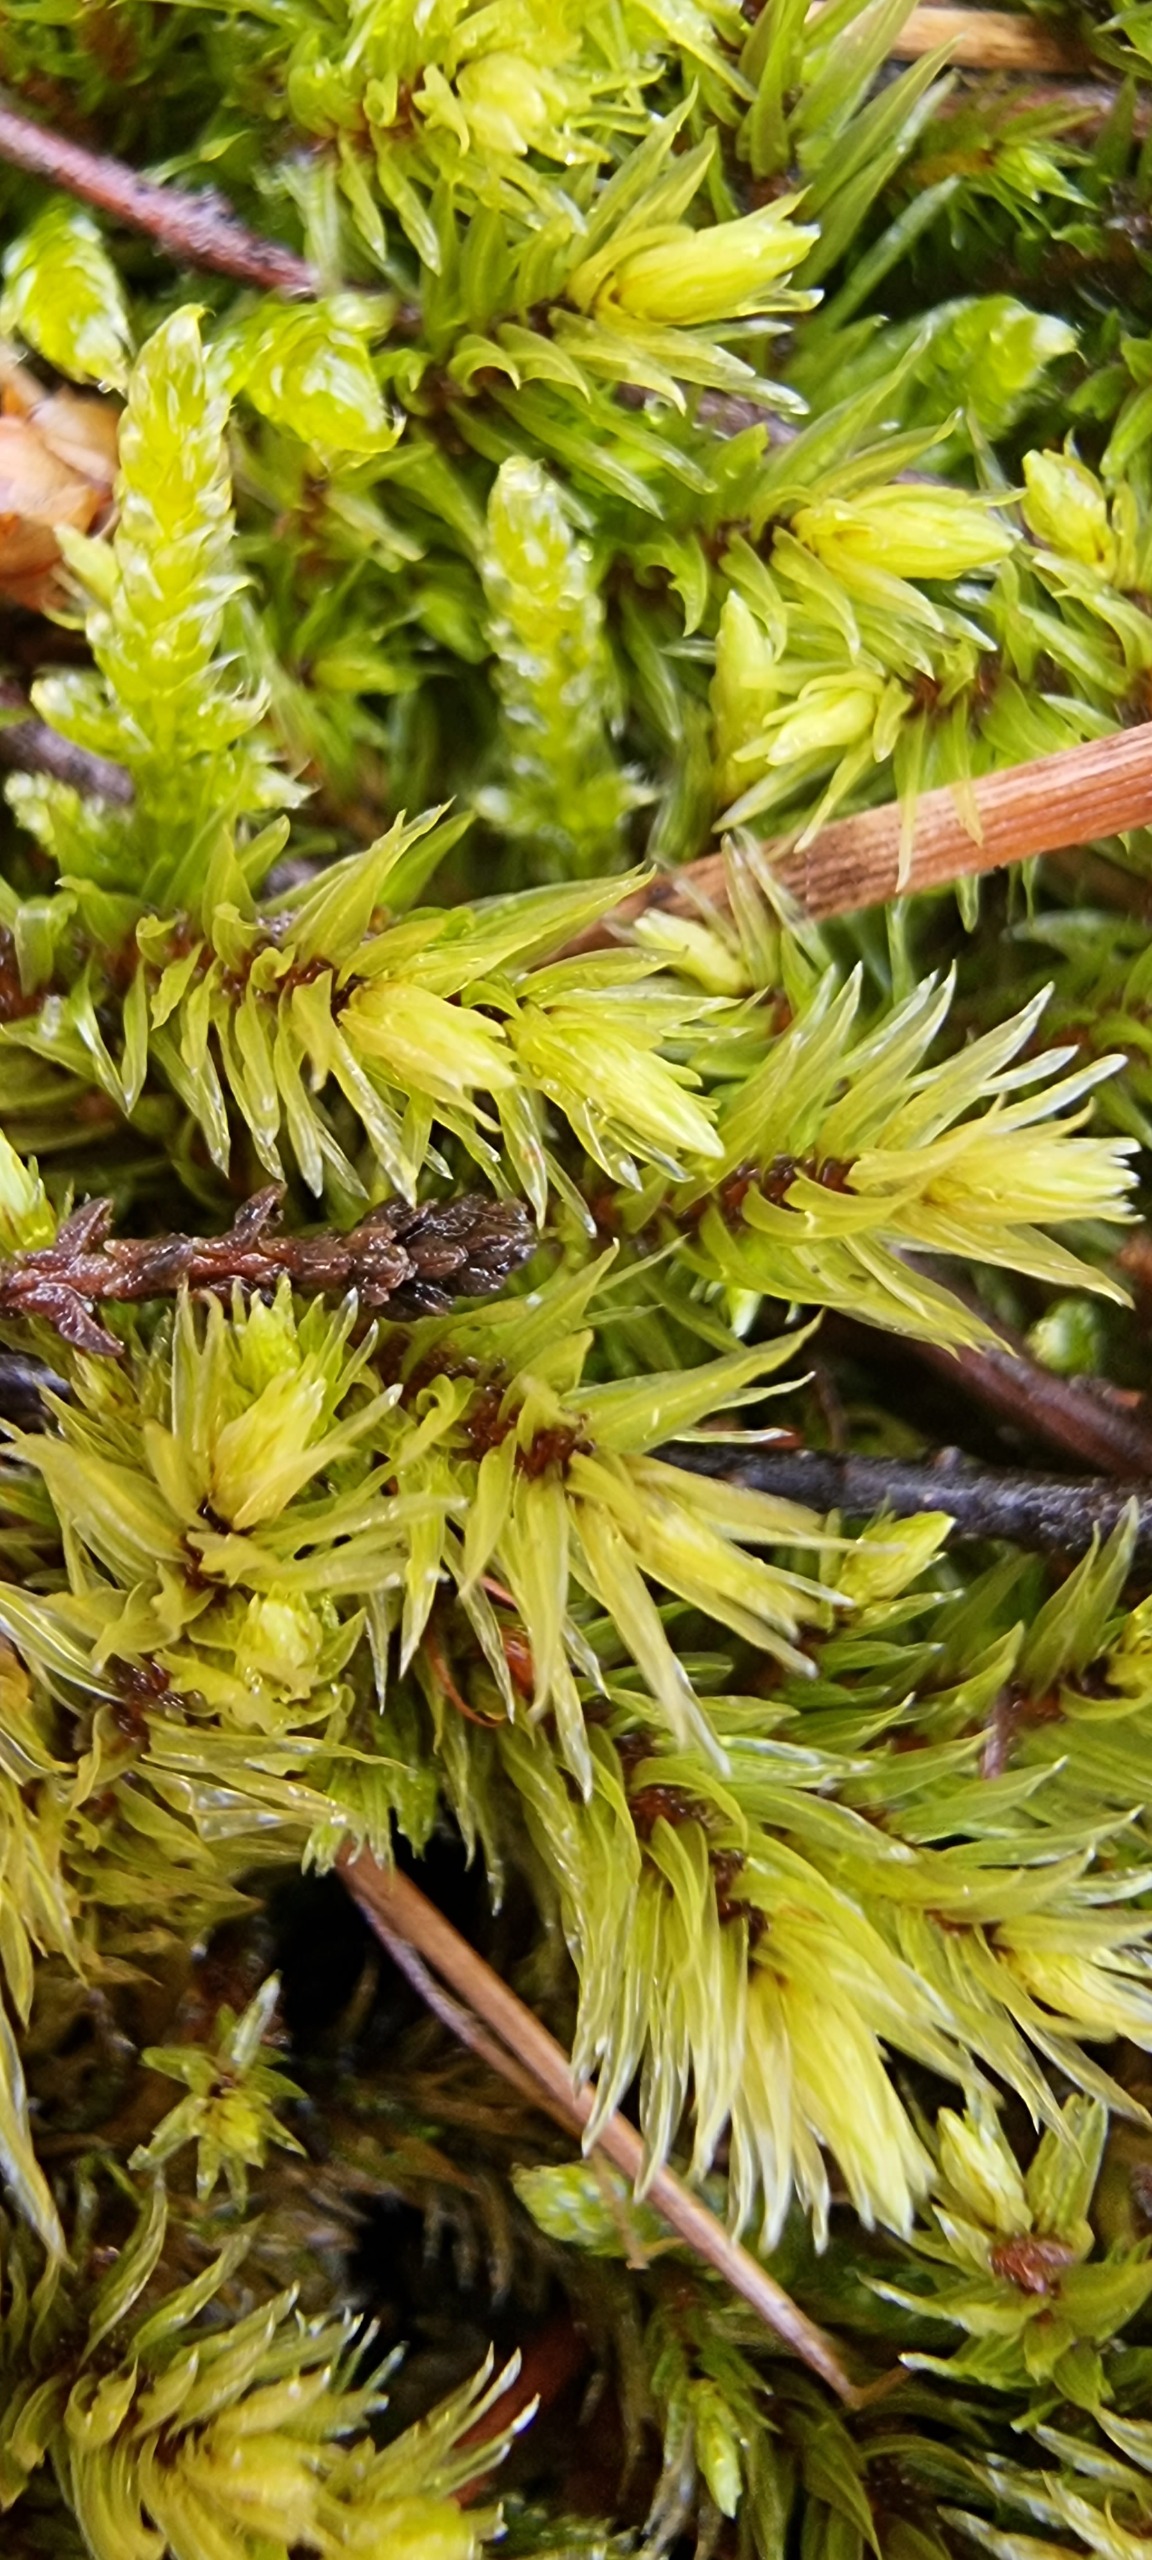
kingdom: Plantae
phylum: Bryophyta
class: Bryopsida
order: Aulacomniales
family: Aulacomniaceae
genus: Aulacomnium
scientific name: Aulacomnium palustre
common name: Almindelig filtmos
